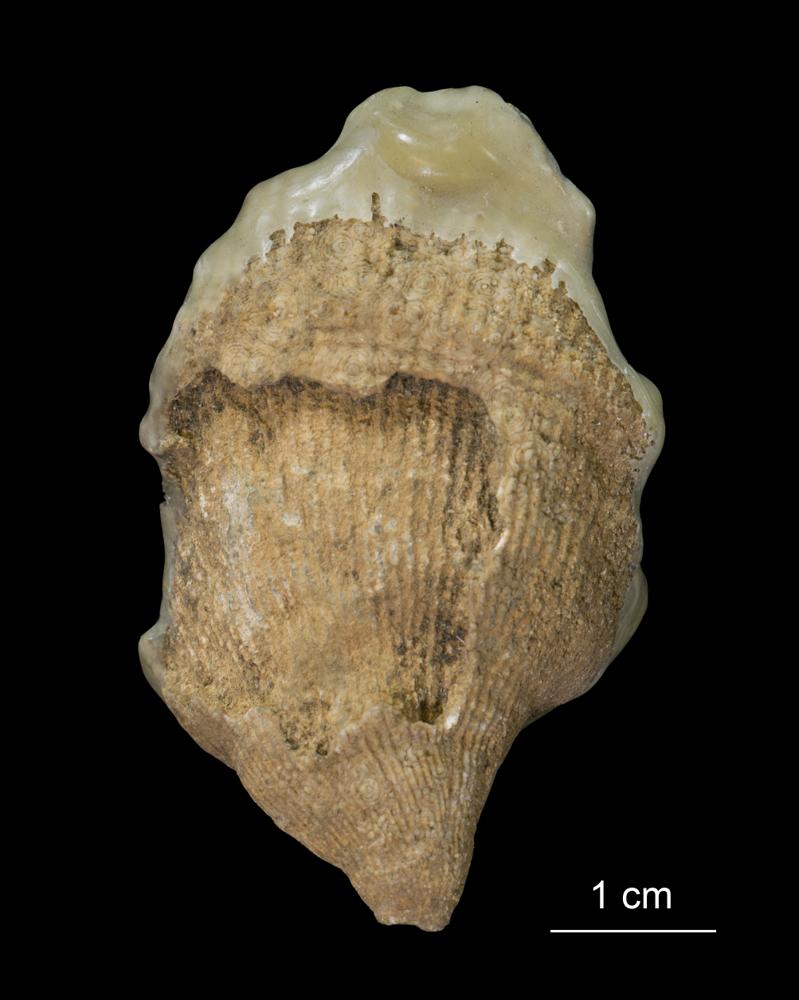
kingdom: Animalia
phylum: Cnidaria
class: Anthozoa
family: Streptelasmatidae
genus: Streptelasma
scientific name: Streptelasma corniculum
